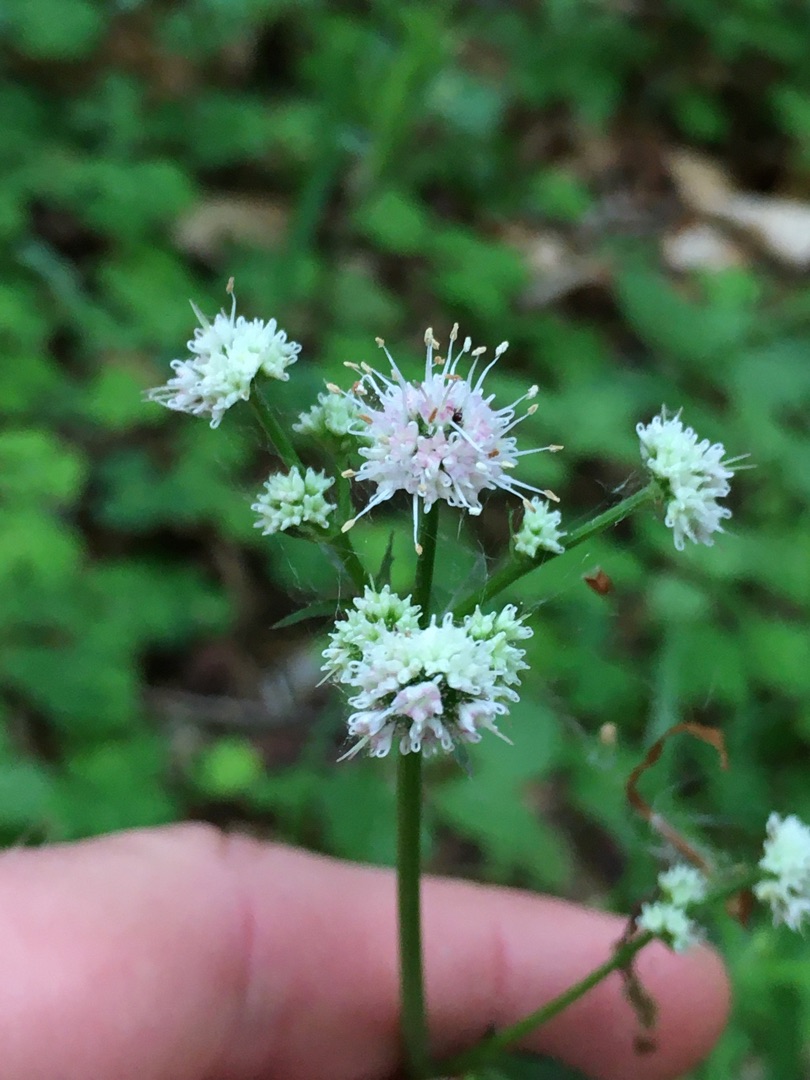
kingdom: Plantae
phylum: Tracheophyta
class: Magnoliopsida
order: Apiales
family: Apiaceae
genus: Sanicula
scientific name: Sanicula europaea
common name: Sanikel
